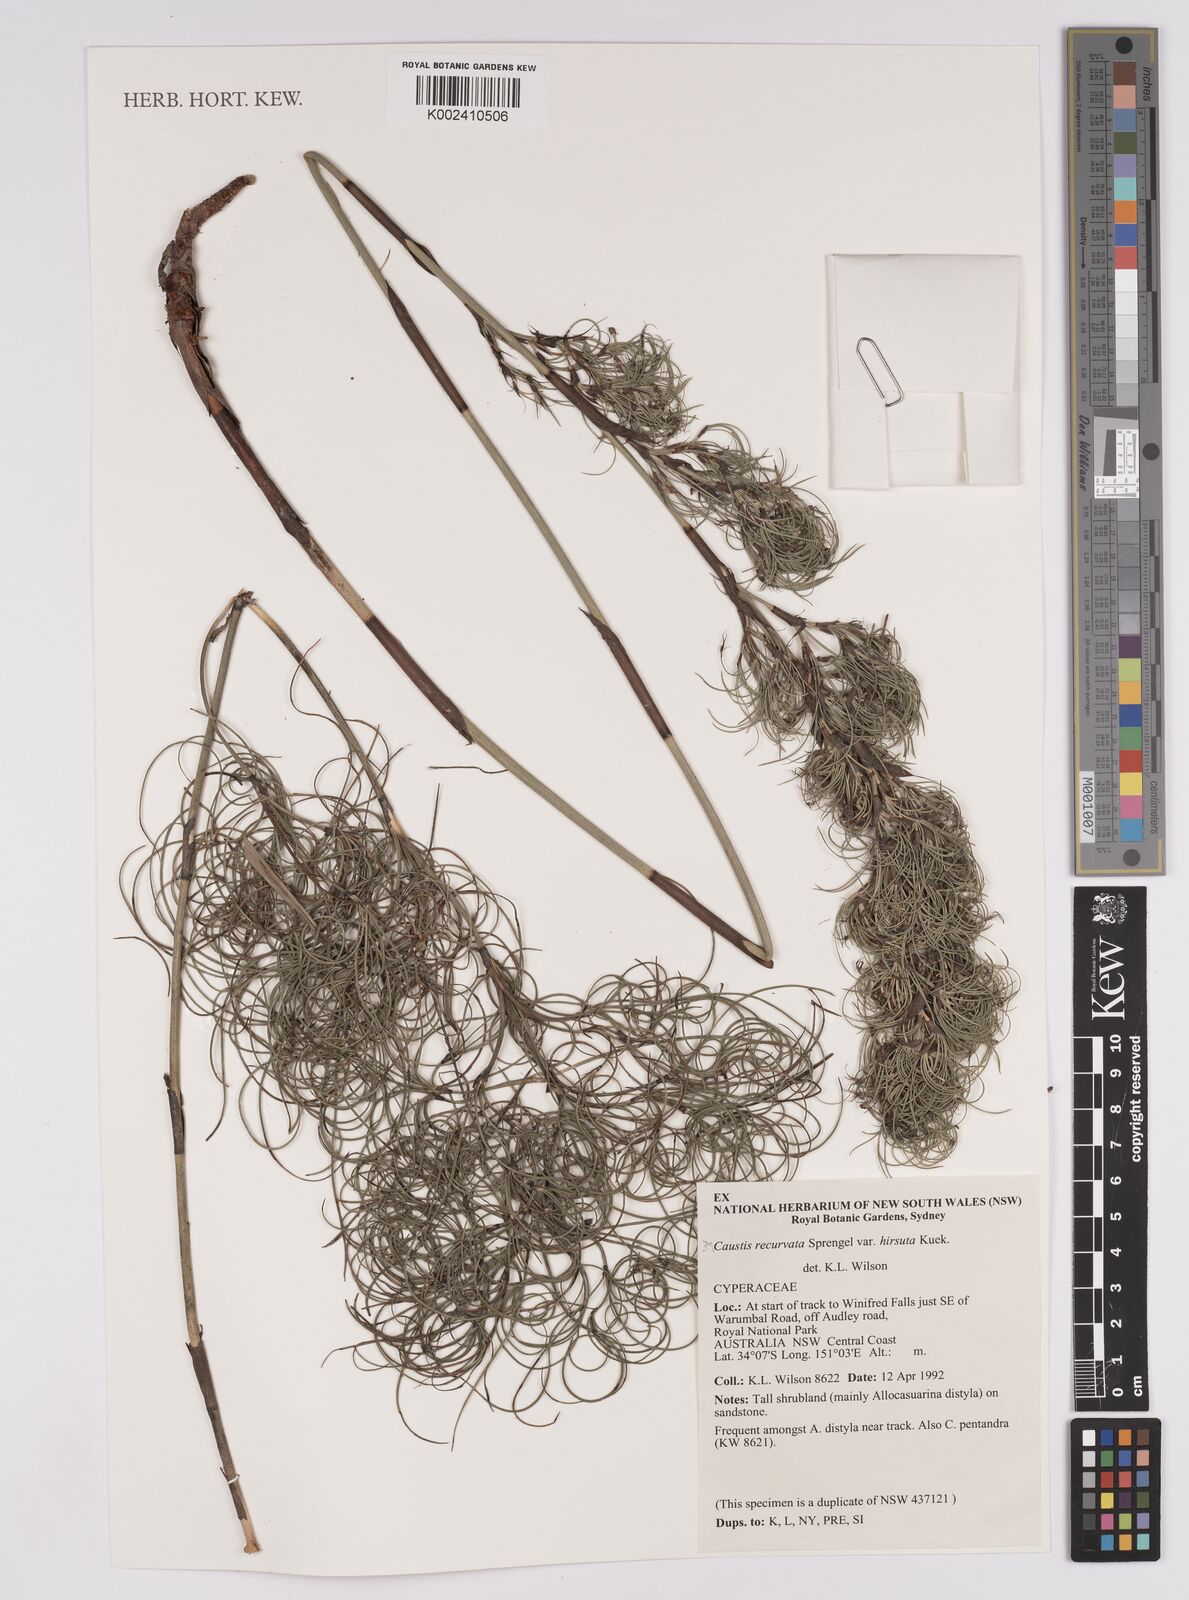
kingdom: Plantae
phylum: Tracheophyta
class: Liliopsida
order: Poales
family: Cyperaceae
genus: Caustis
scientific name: Caustis recurvata
